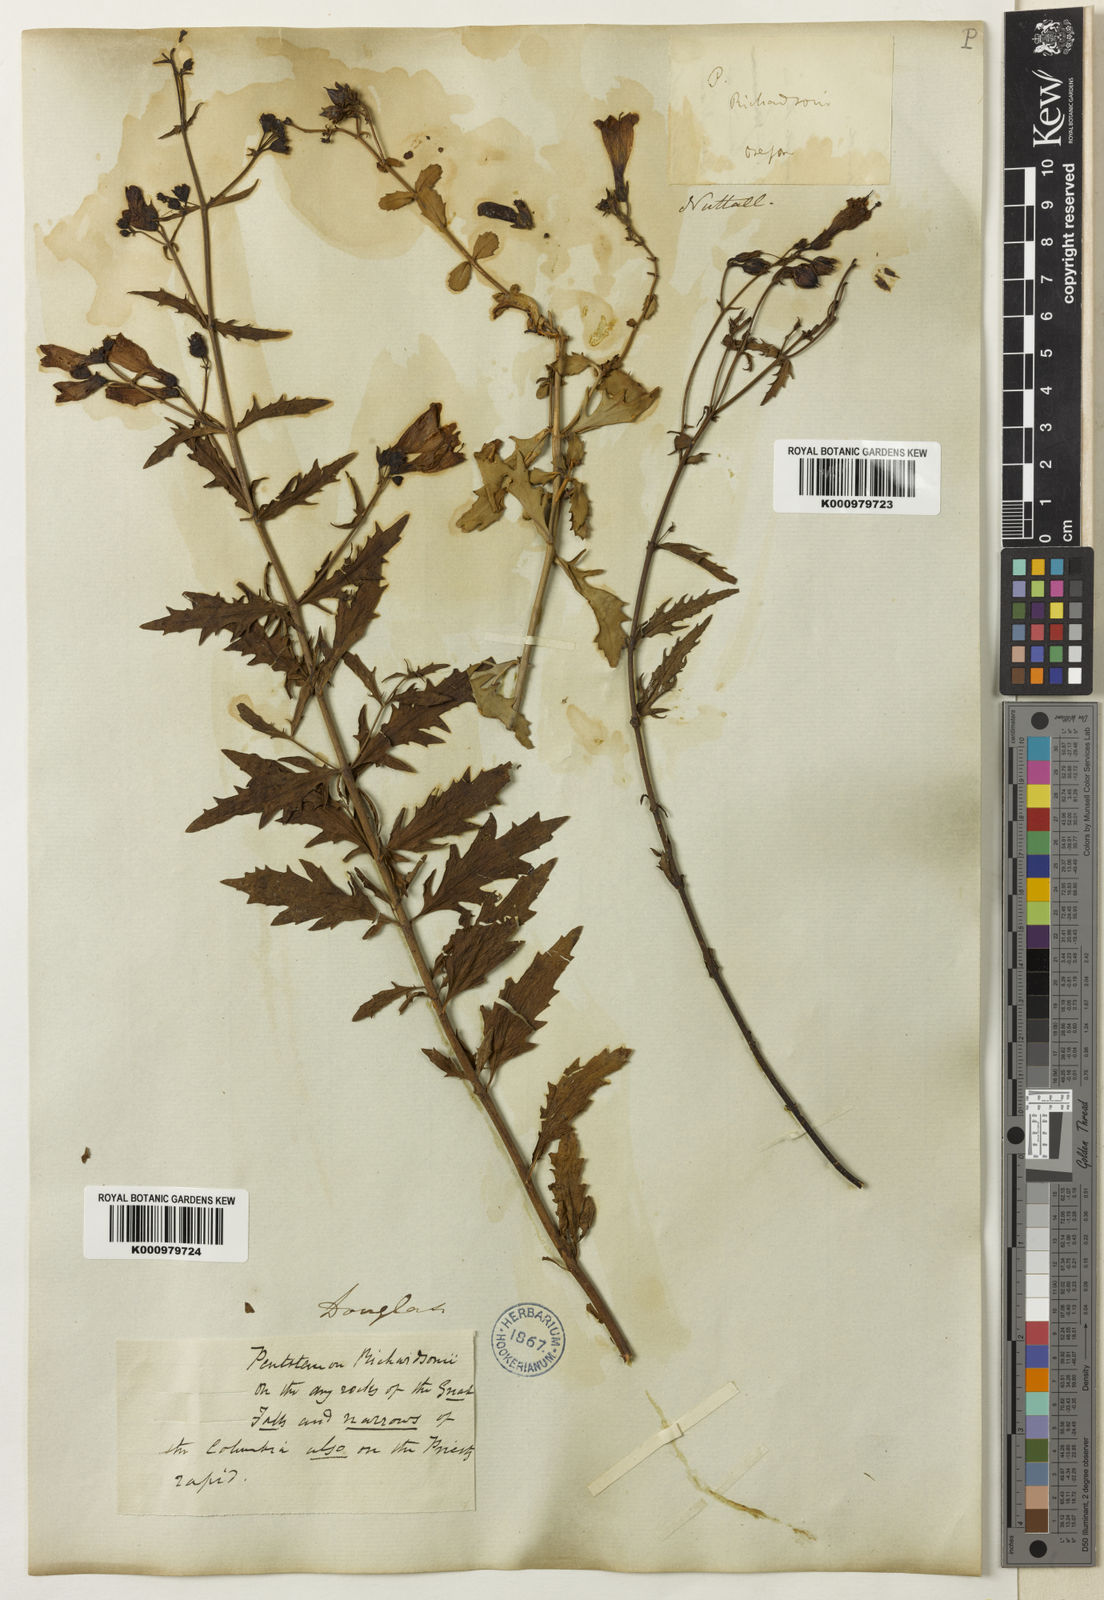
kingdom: Plantae
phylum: Tracheophyta
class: Magnoliopsida
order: Lamiales
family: Plantaginaceae
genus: Penstemon
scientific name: Penstemon richardsonii
